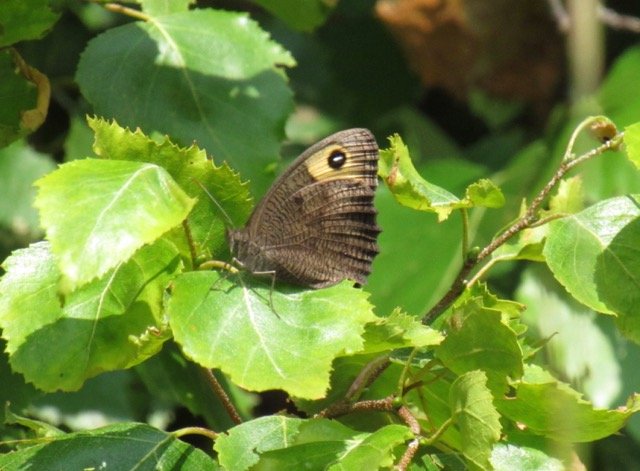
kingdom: Animalia
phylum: Arthropoda
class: Insecta
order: Lepidoptera
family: Nymphalidae
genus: Cercyonis
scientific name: Cercyonis pegala
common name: Common Wood-Nymph
